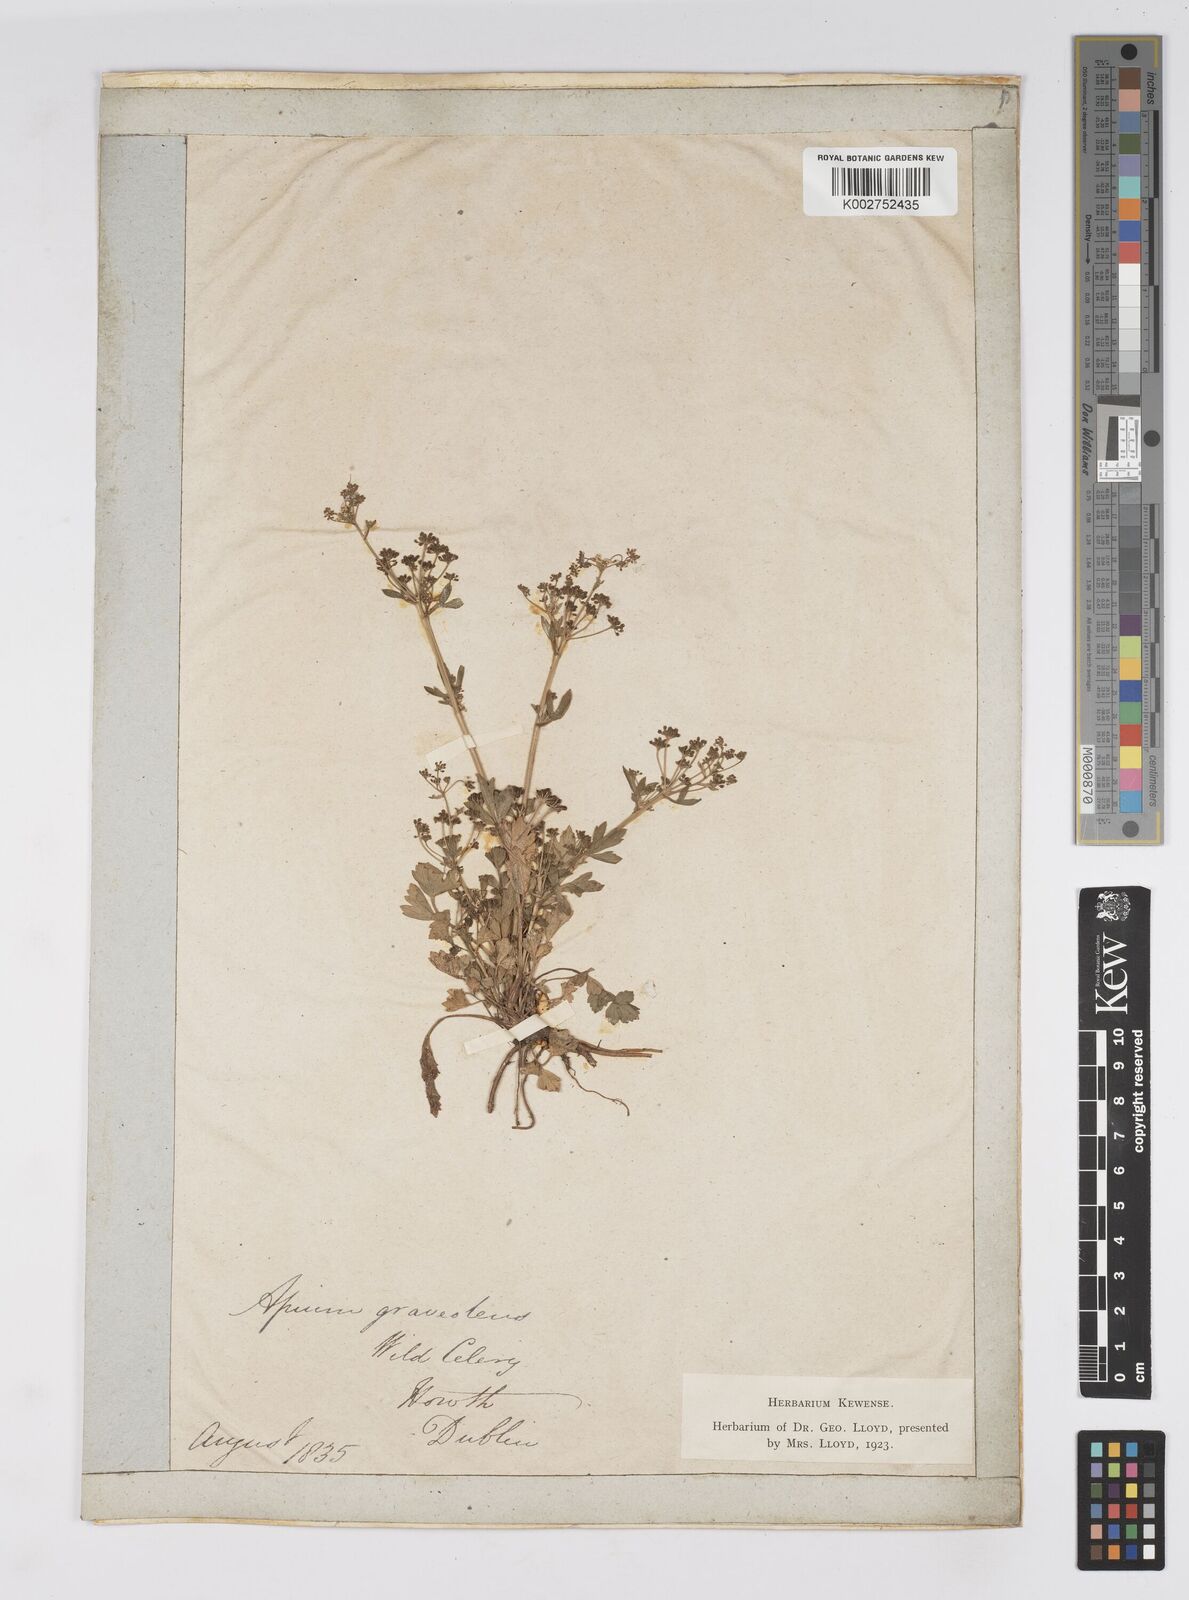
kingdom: Plantae
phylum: Tracheophyta
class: Magnoliopsida
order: Apiales
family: Apiaceae
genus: Apium
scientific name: Apium graveolens
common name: Wild celery
